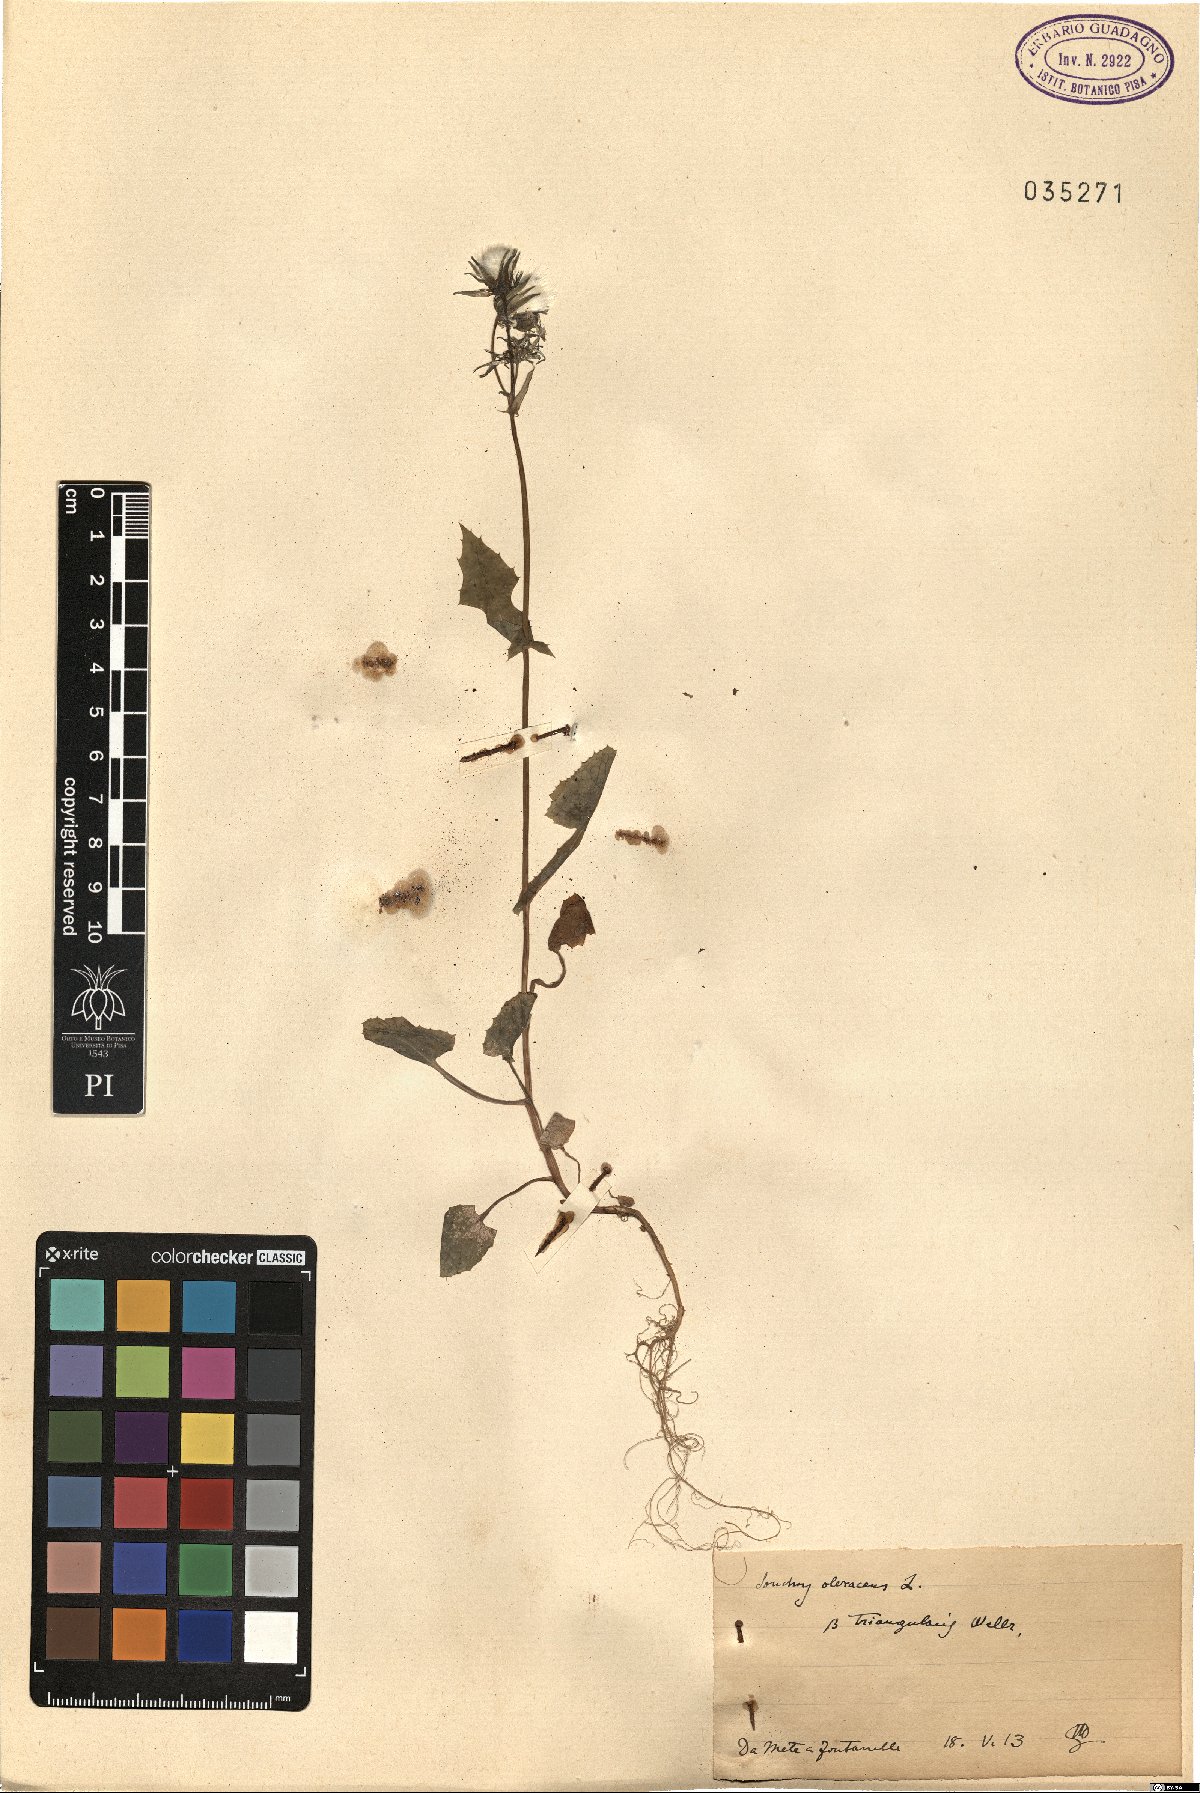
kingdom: Plantae
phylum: Tracheophyta
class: Magnoliopsida
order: Asterales
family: Asteraceae
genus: Sonchus
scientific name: Sonchus oleraceus
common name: Common sowthistle
